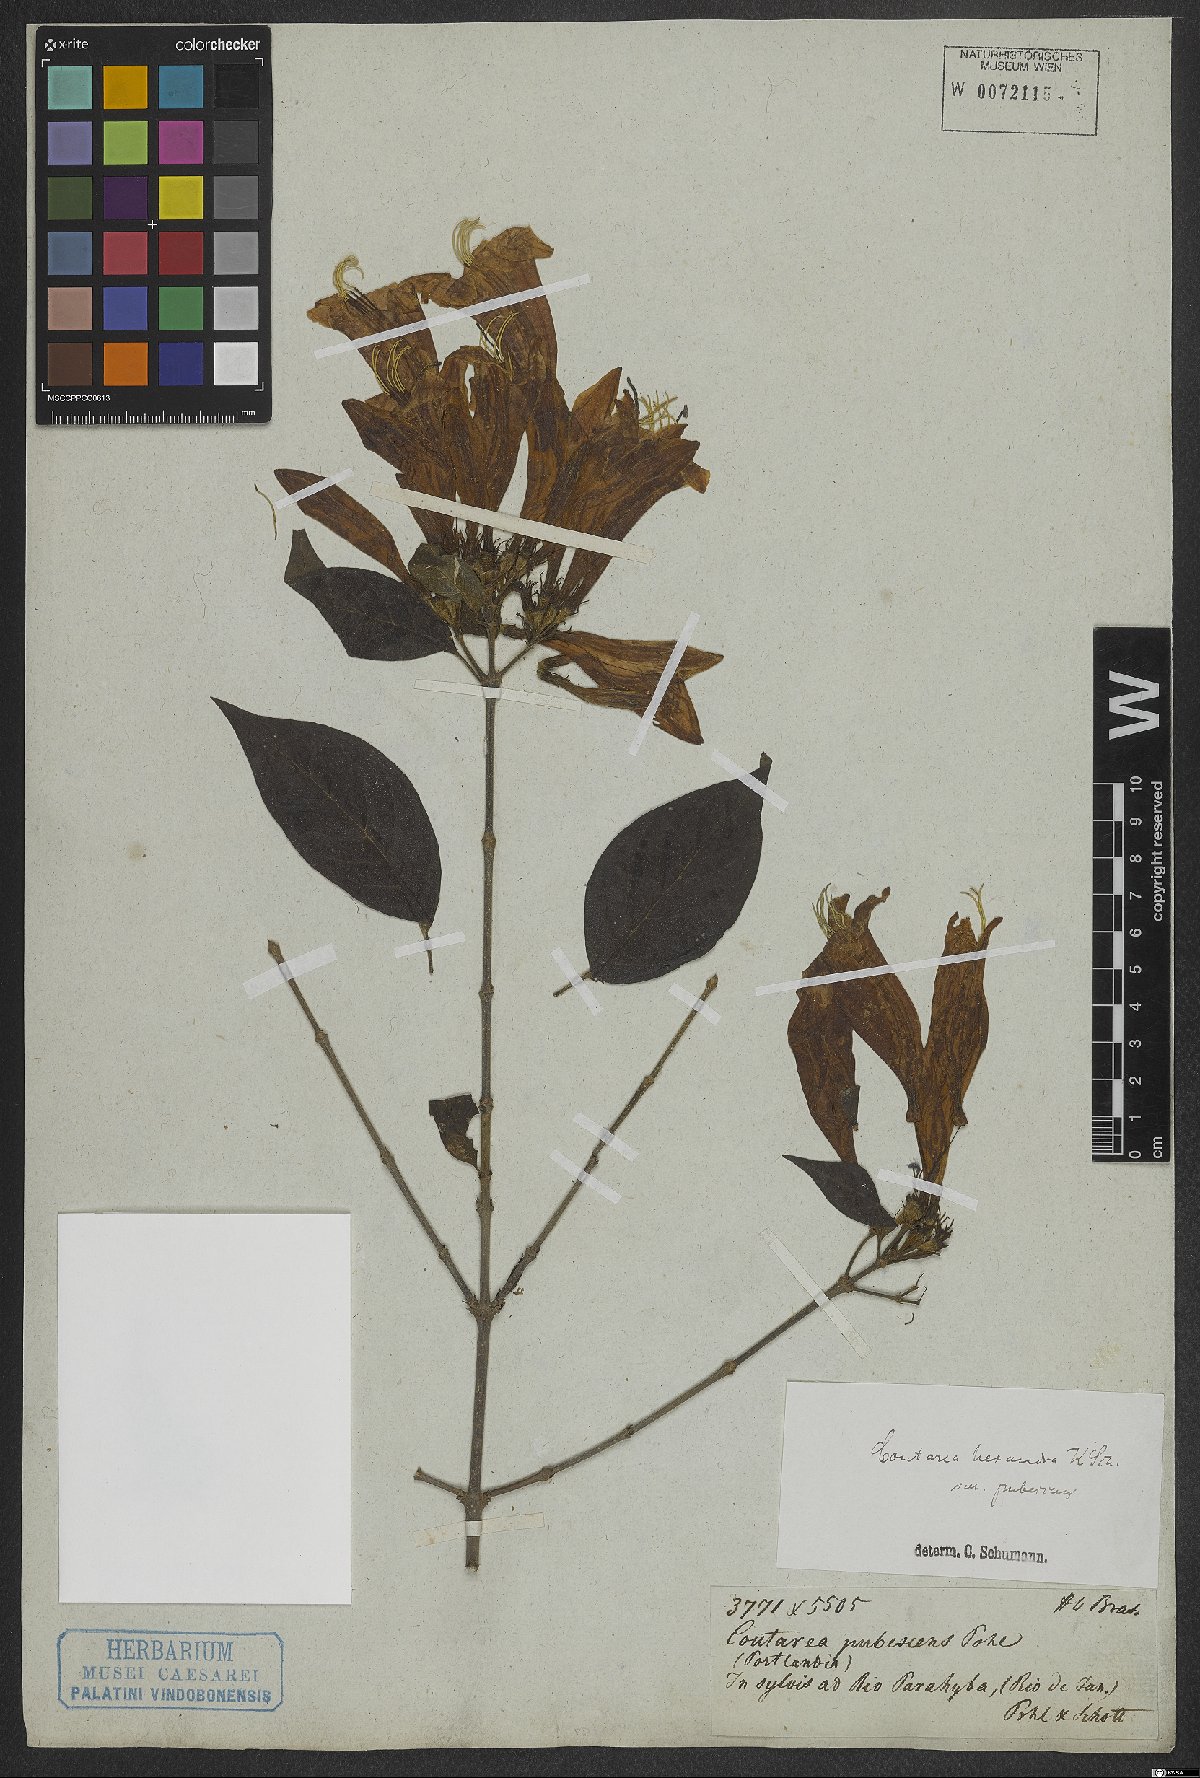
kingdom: Plantae
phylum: Tracheophyta
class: Magnoliopsida
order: Gentianales
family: Rubiaceae
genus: Coutarea
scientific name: Coutarea hexandra
